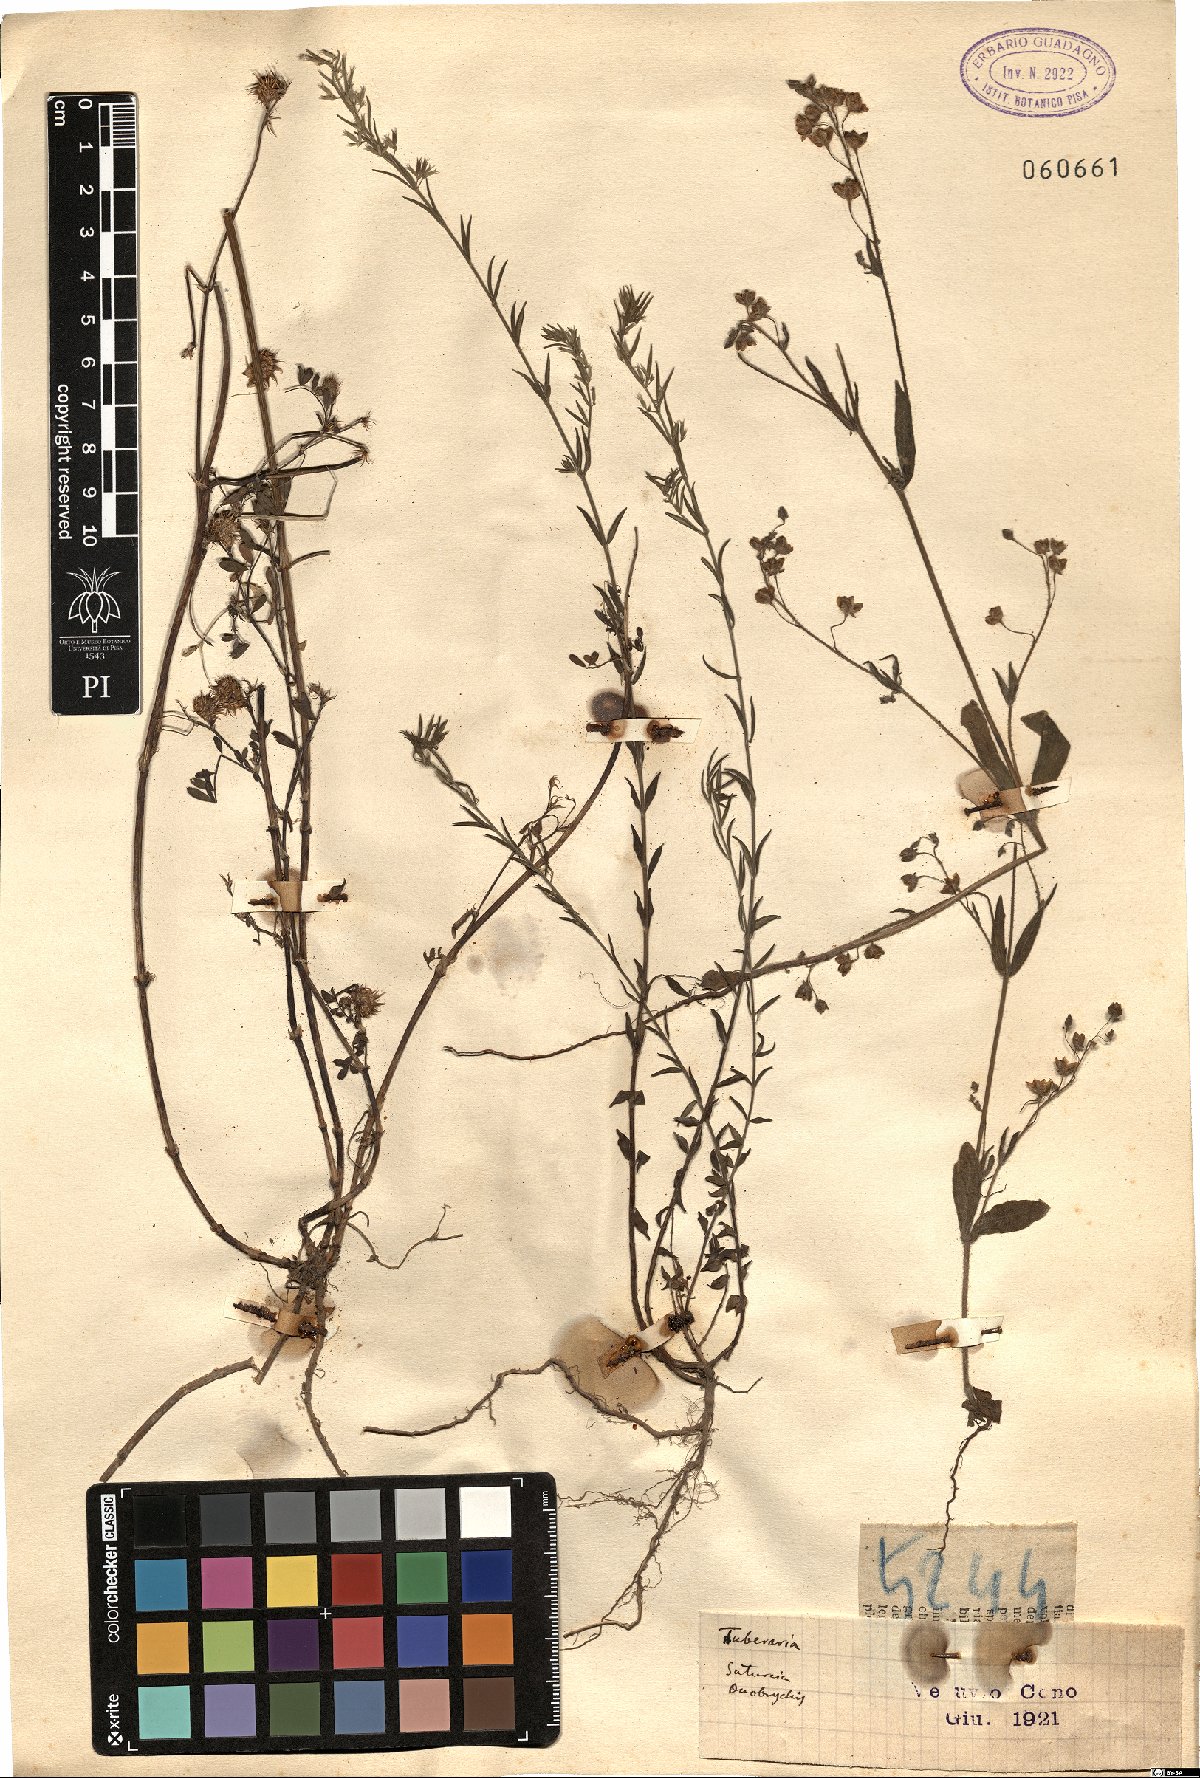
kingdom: Plantae
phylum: Tracheophyta
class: Magnoliopsida
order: Malvales
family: Cistaceae
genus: Tuberaria
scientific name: Tuberaria
